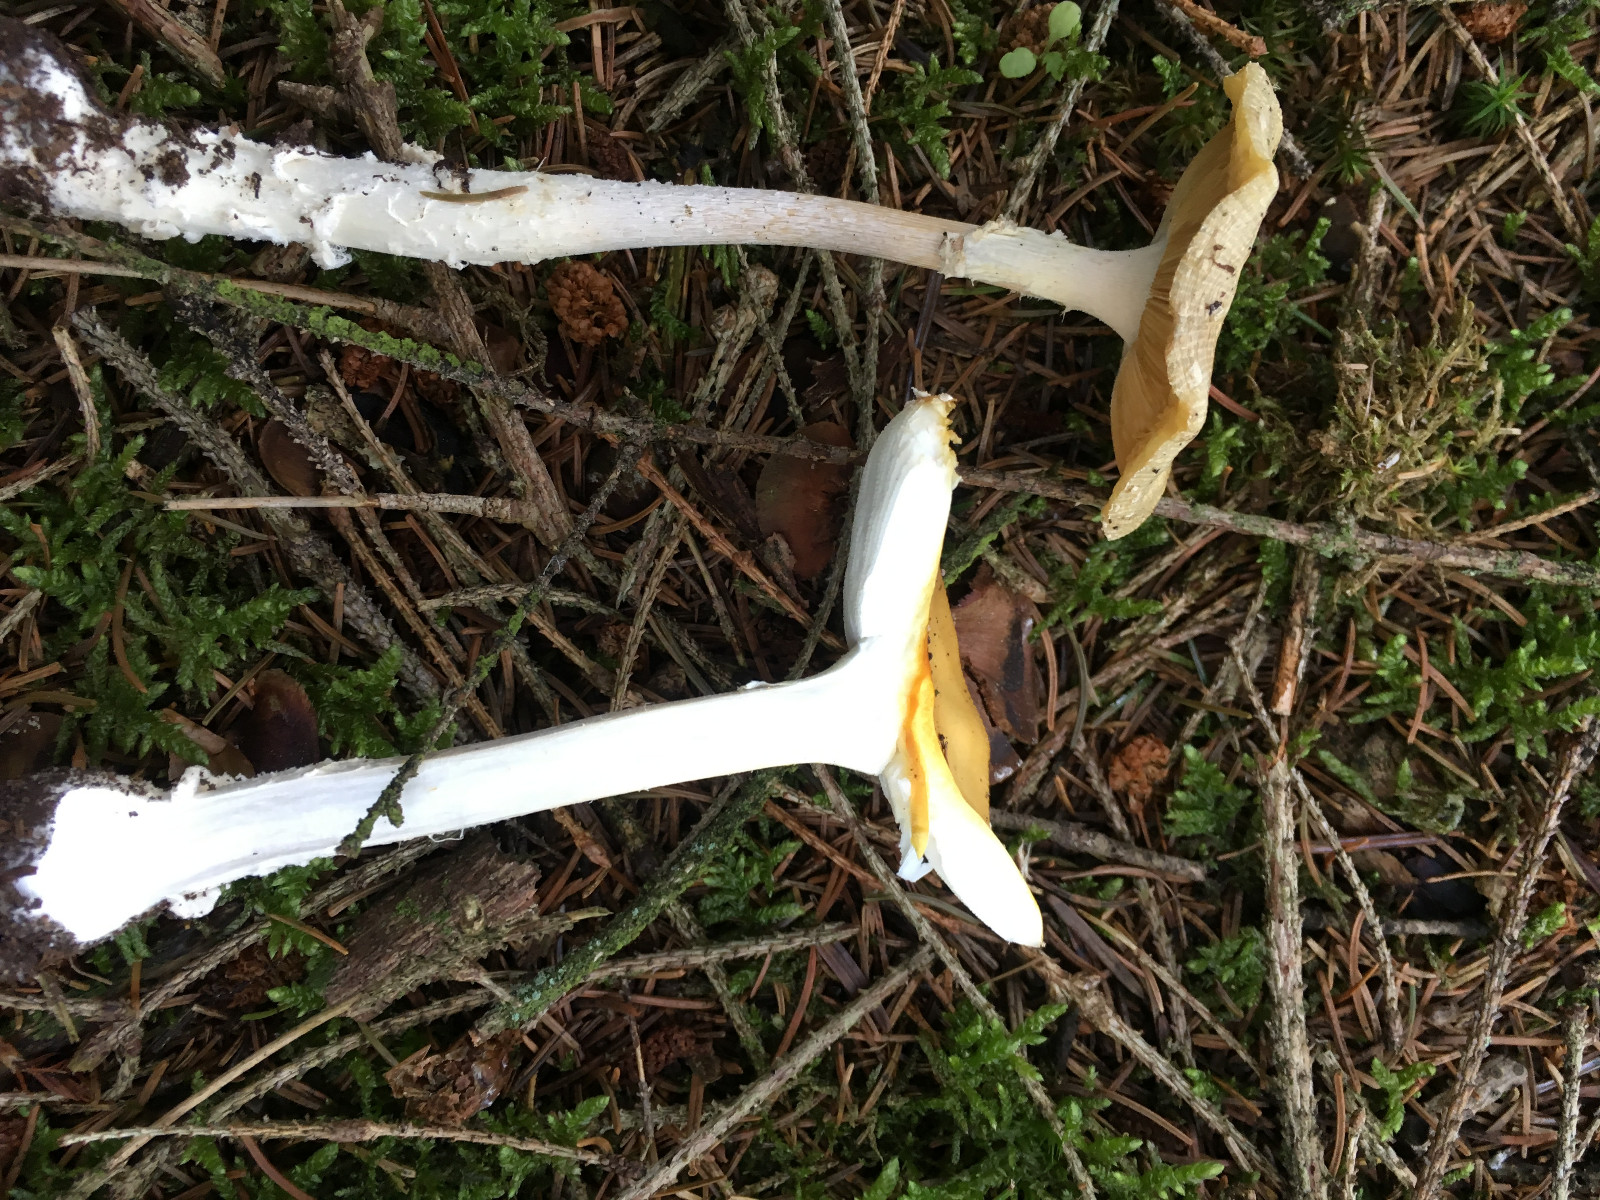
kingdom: Fungi
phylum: Basidiomycota
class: Agaricomycetes
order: Agaricales
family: Amanitaceae
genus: Amanita
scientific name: Amanita gemmata
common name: okkergul fluesvamp
